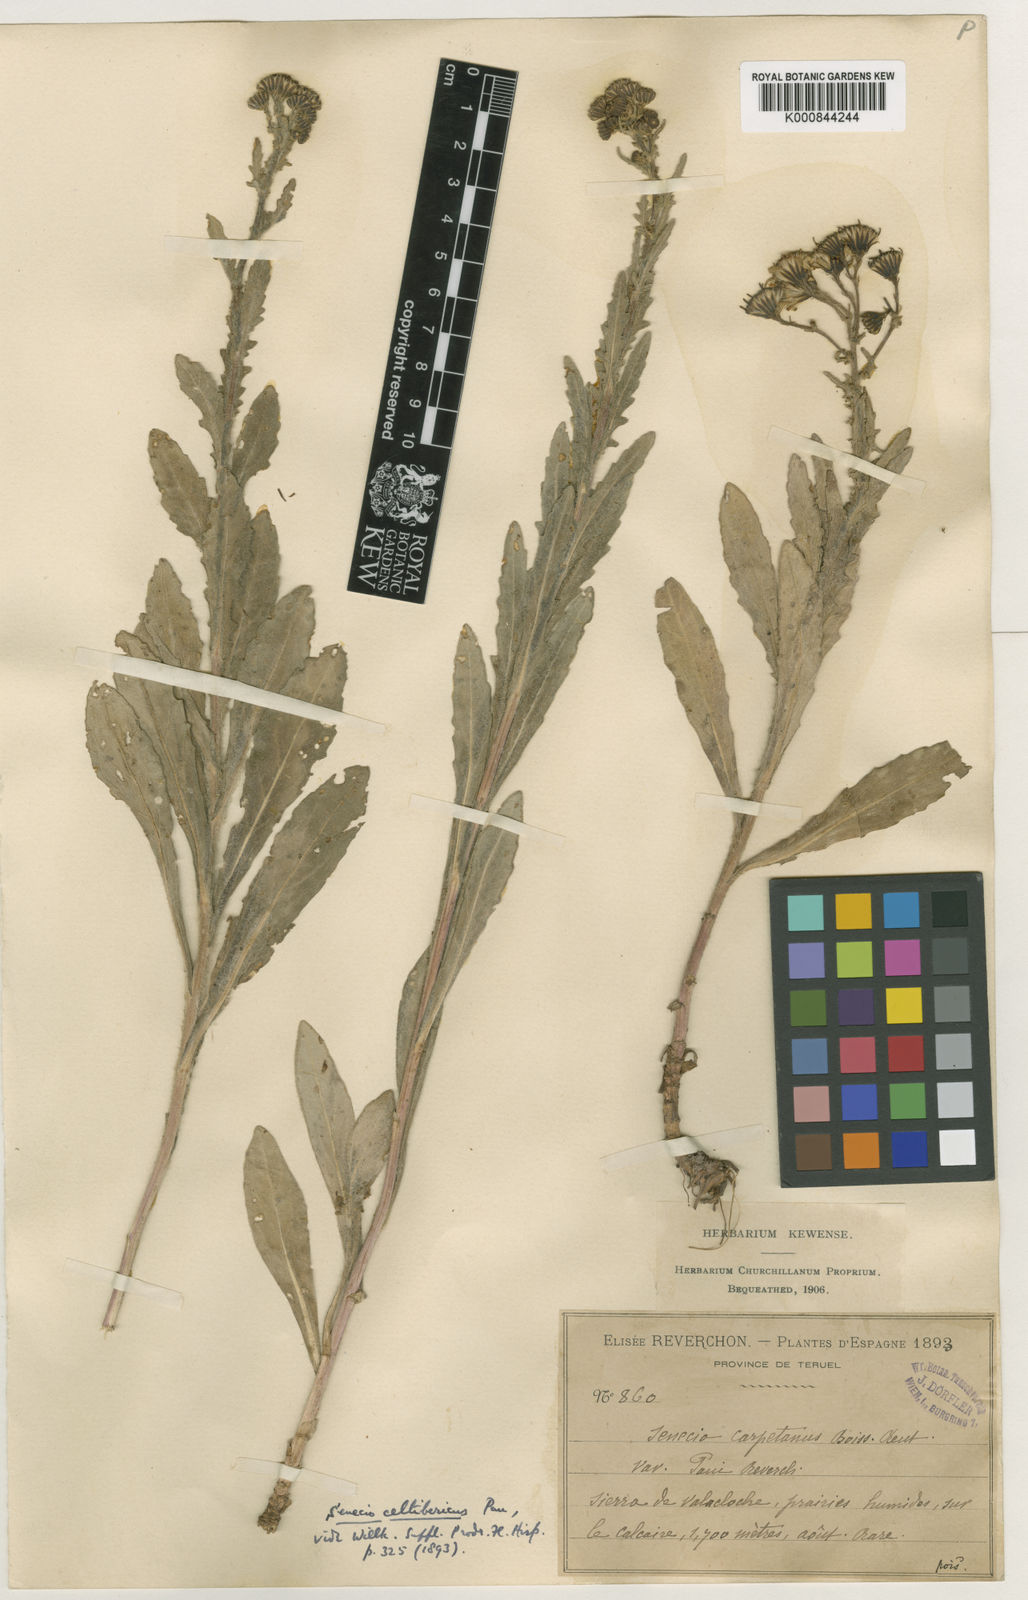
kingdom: Plantae
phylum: Tracheophyta
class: Magnoliopsida
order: Asterales
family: Asteraceae
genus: Senecio
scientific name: Senecio carpetanus
